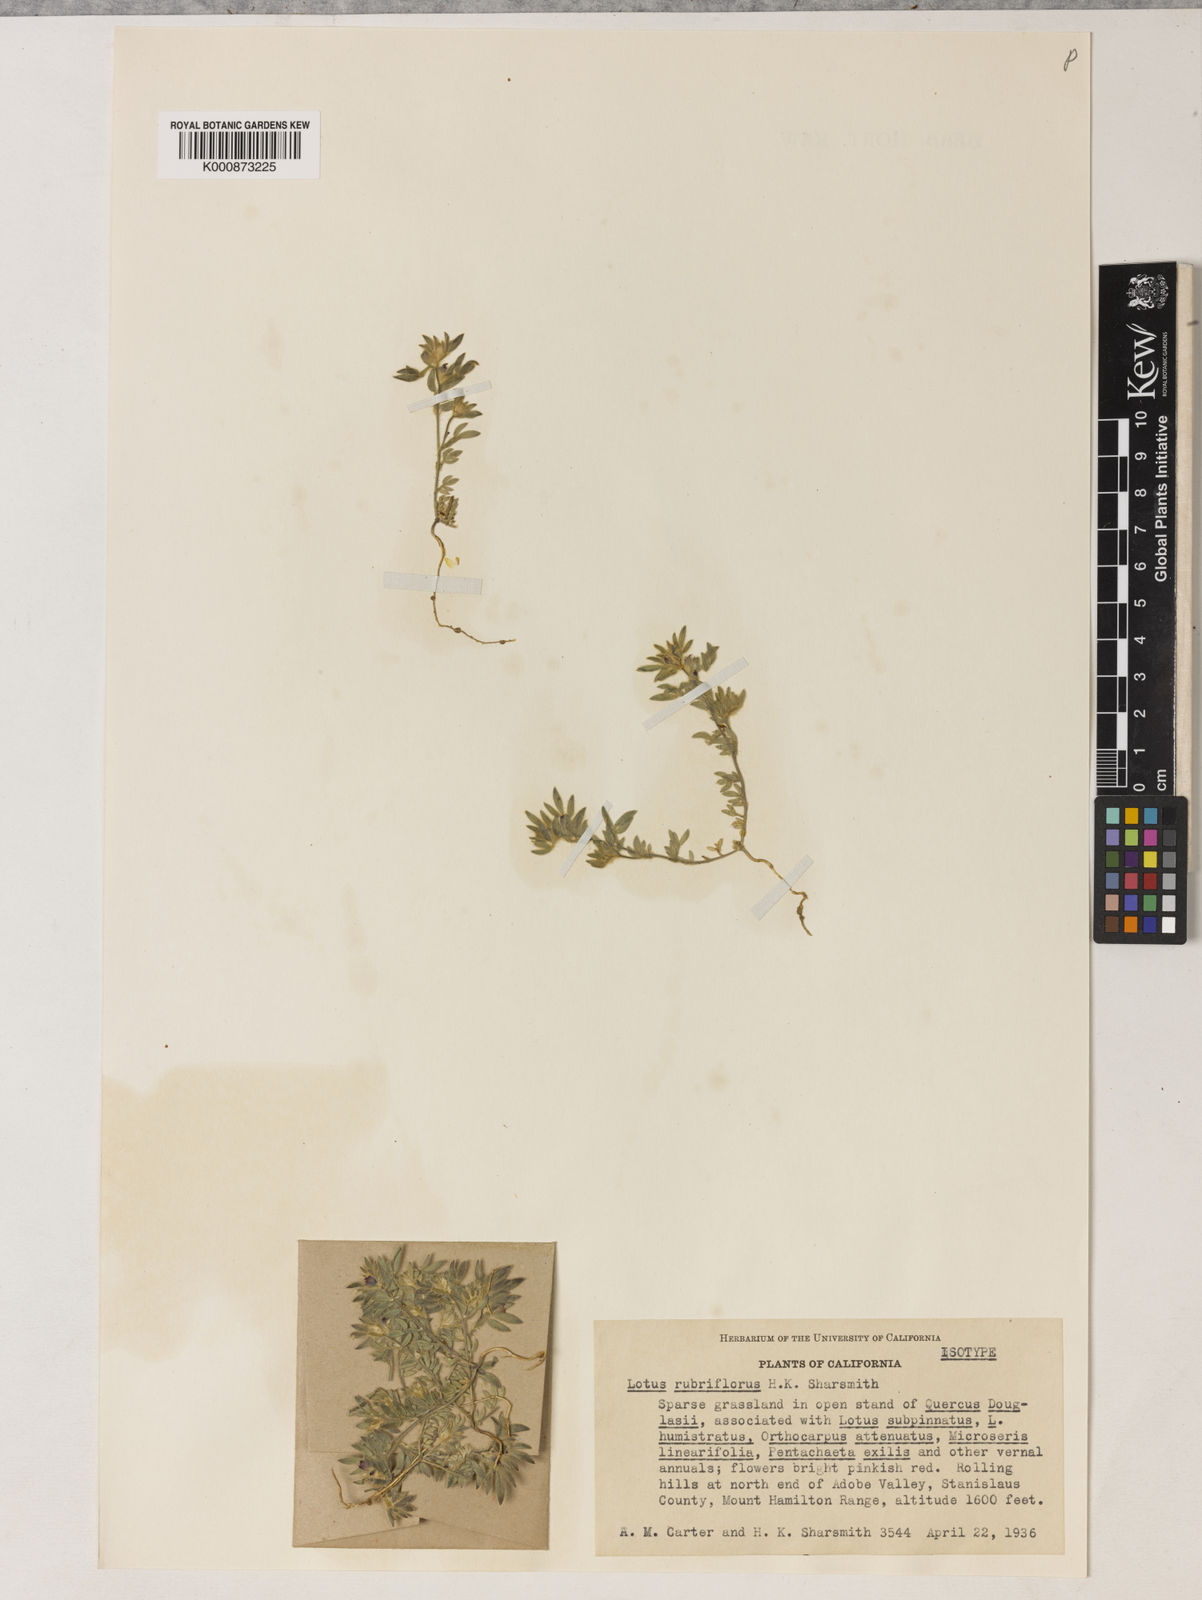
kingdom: Plantae
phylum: Tracheophyta
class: Magnoliopsida
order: Fabales
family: Fabaceae
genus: Acmispon
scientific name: Acmispon rubriflorus
